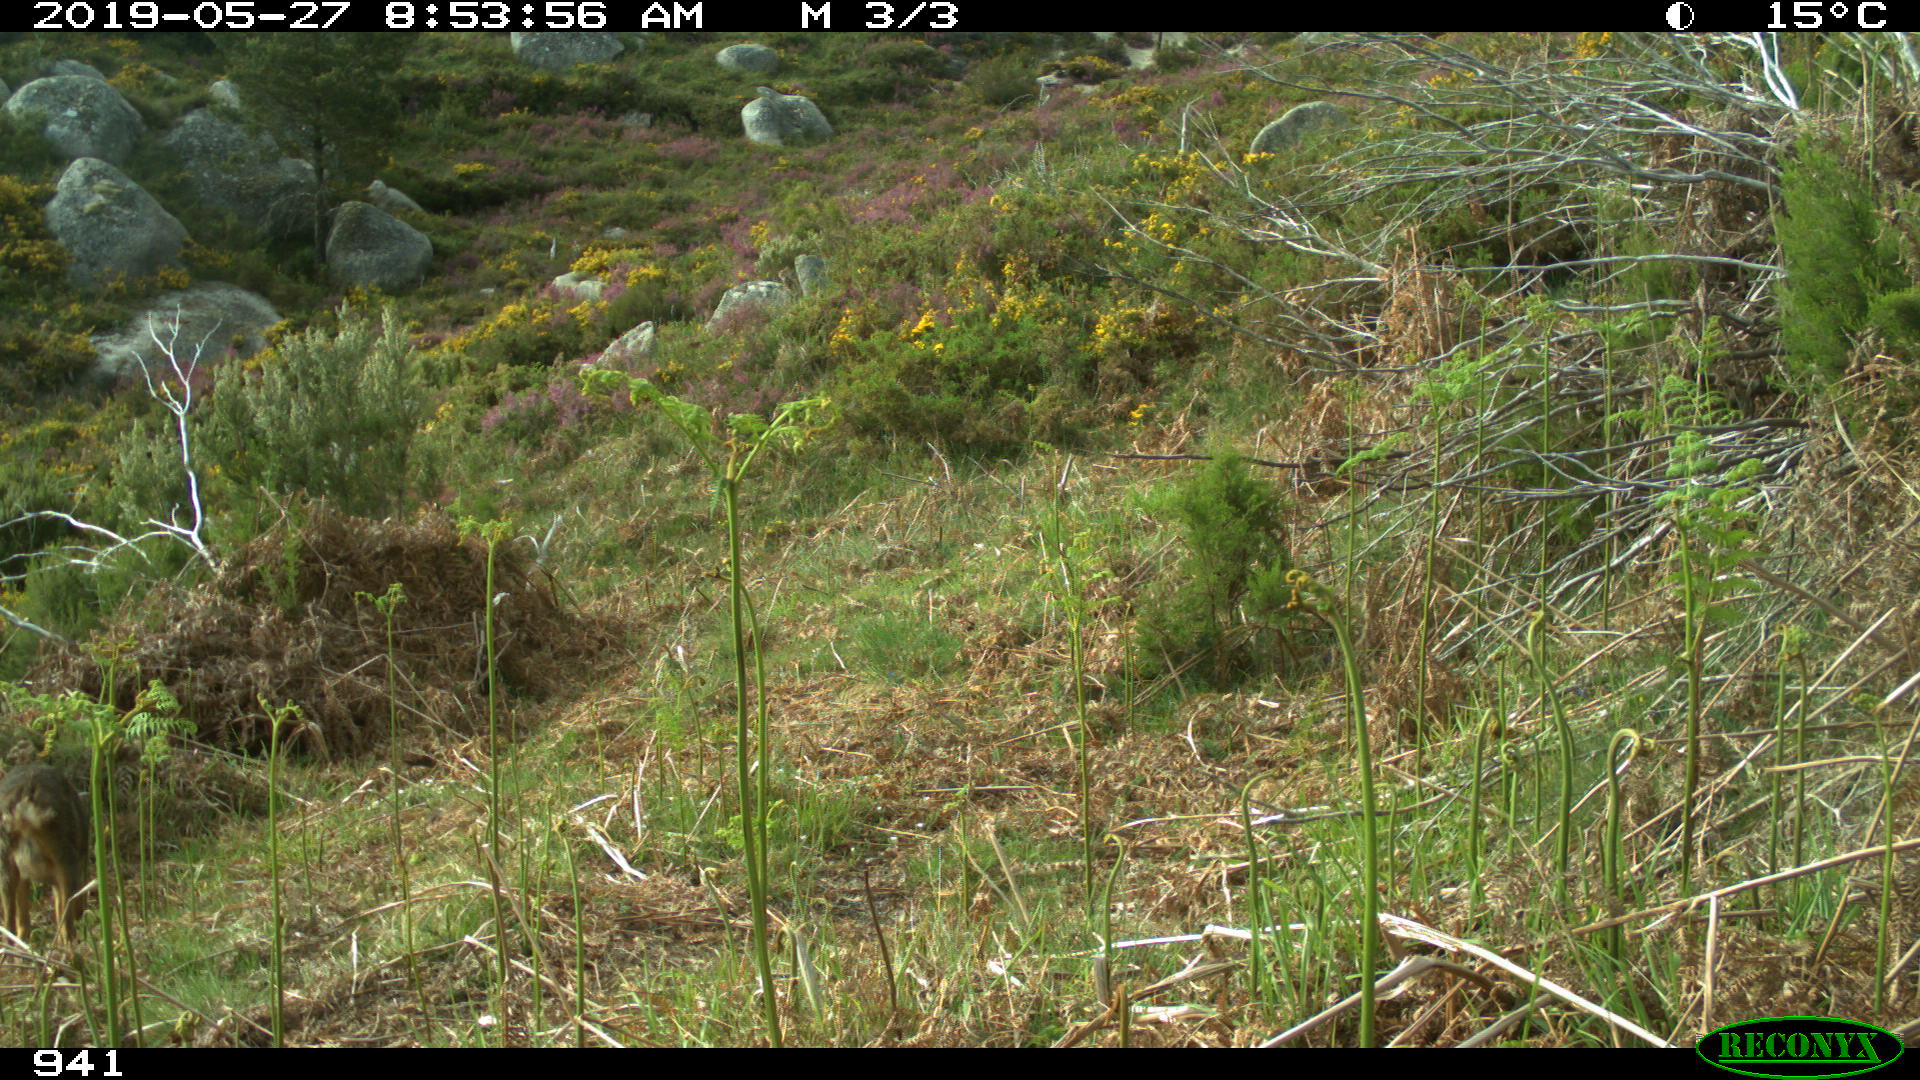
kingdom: Animalia
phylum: Chordata
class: Mammalia
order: Artiodactyla
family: Cervidae
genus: Capreolus
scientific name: Capreolus capreolus
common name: Western roe deer
